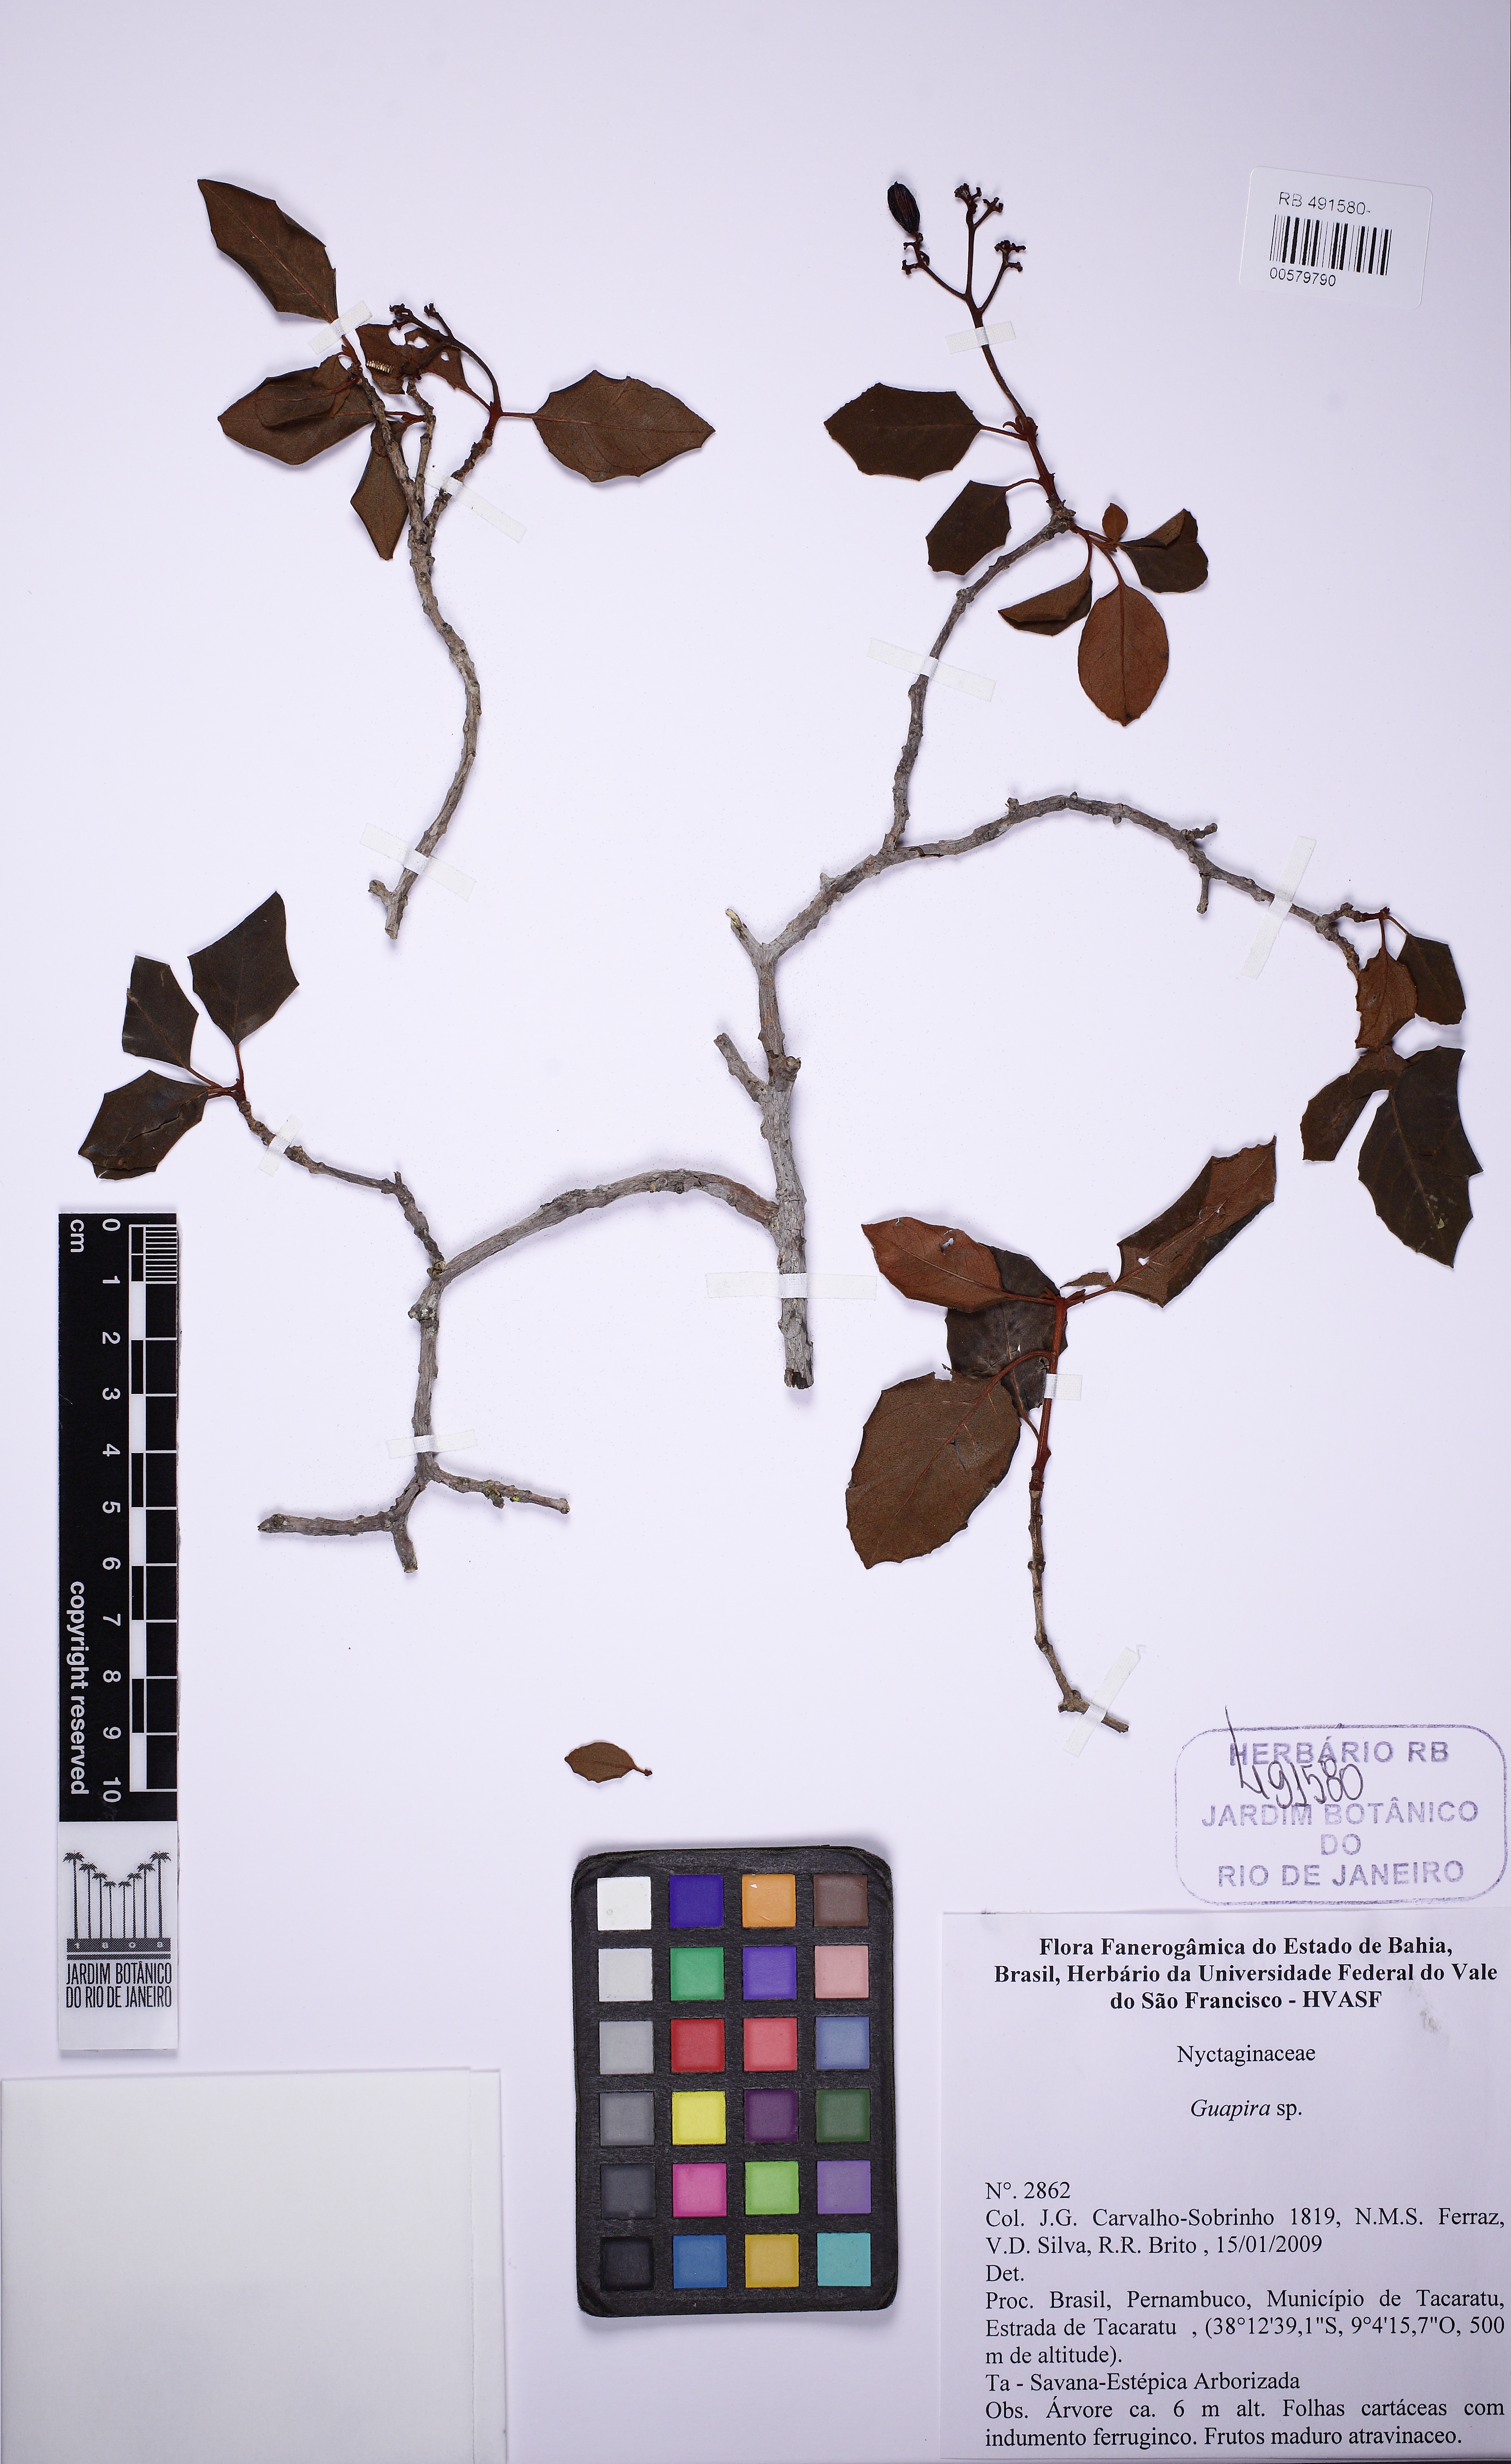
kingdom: Plantae
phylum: Tracheophyta
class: Magnoliopsida
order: Caryophyllales
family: Nyctaginaceae
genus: Guapira
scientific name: Guapira noxia
